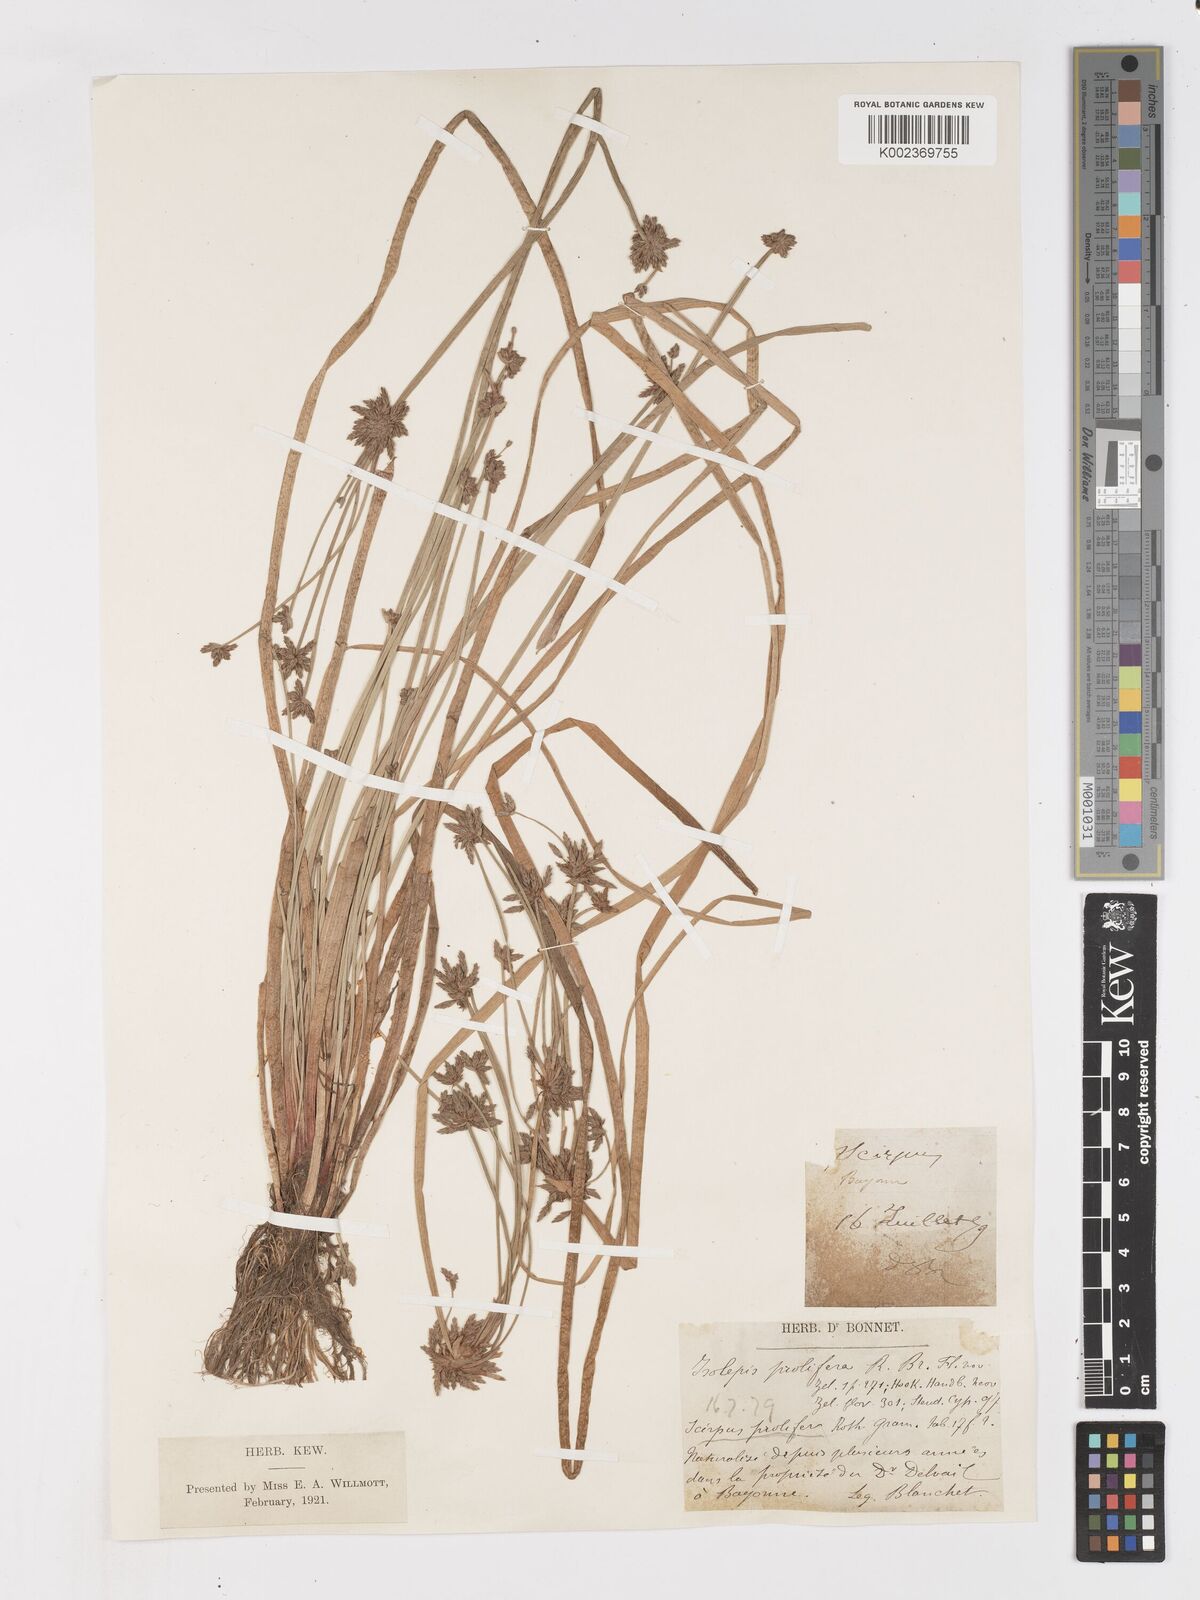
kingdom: Plantae
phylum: Tracheophyta
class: Liliopsida
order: Poales
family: Cyperaceae
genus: Isolepis
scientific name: Isolepis prolifera
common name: Proliferating bulrush
